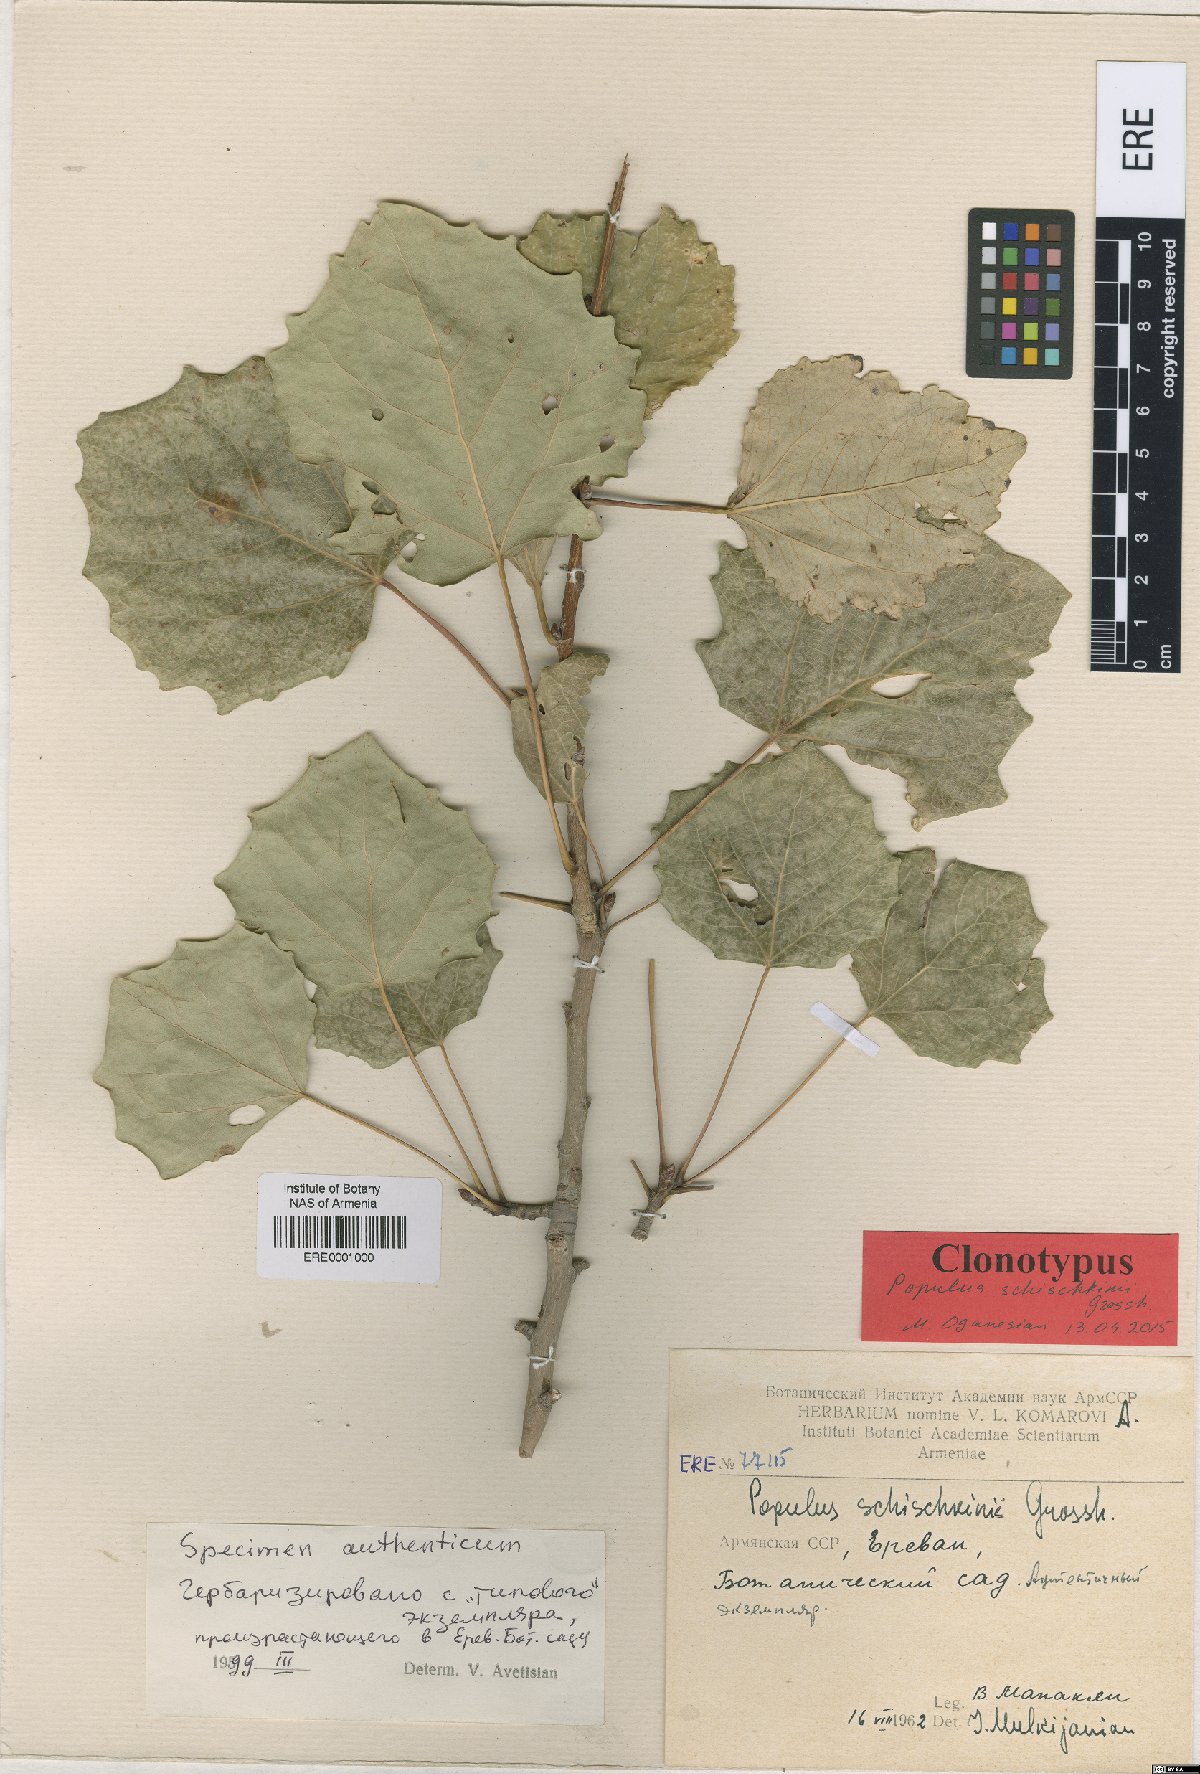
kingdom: Plantae
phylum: Tracheophyta
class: Magnoliopsida
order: Malpighiales
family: Salicaceae
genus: Populus
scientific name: Populus canescens
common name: Gray poplar
